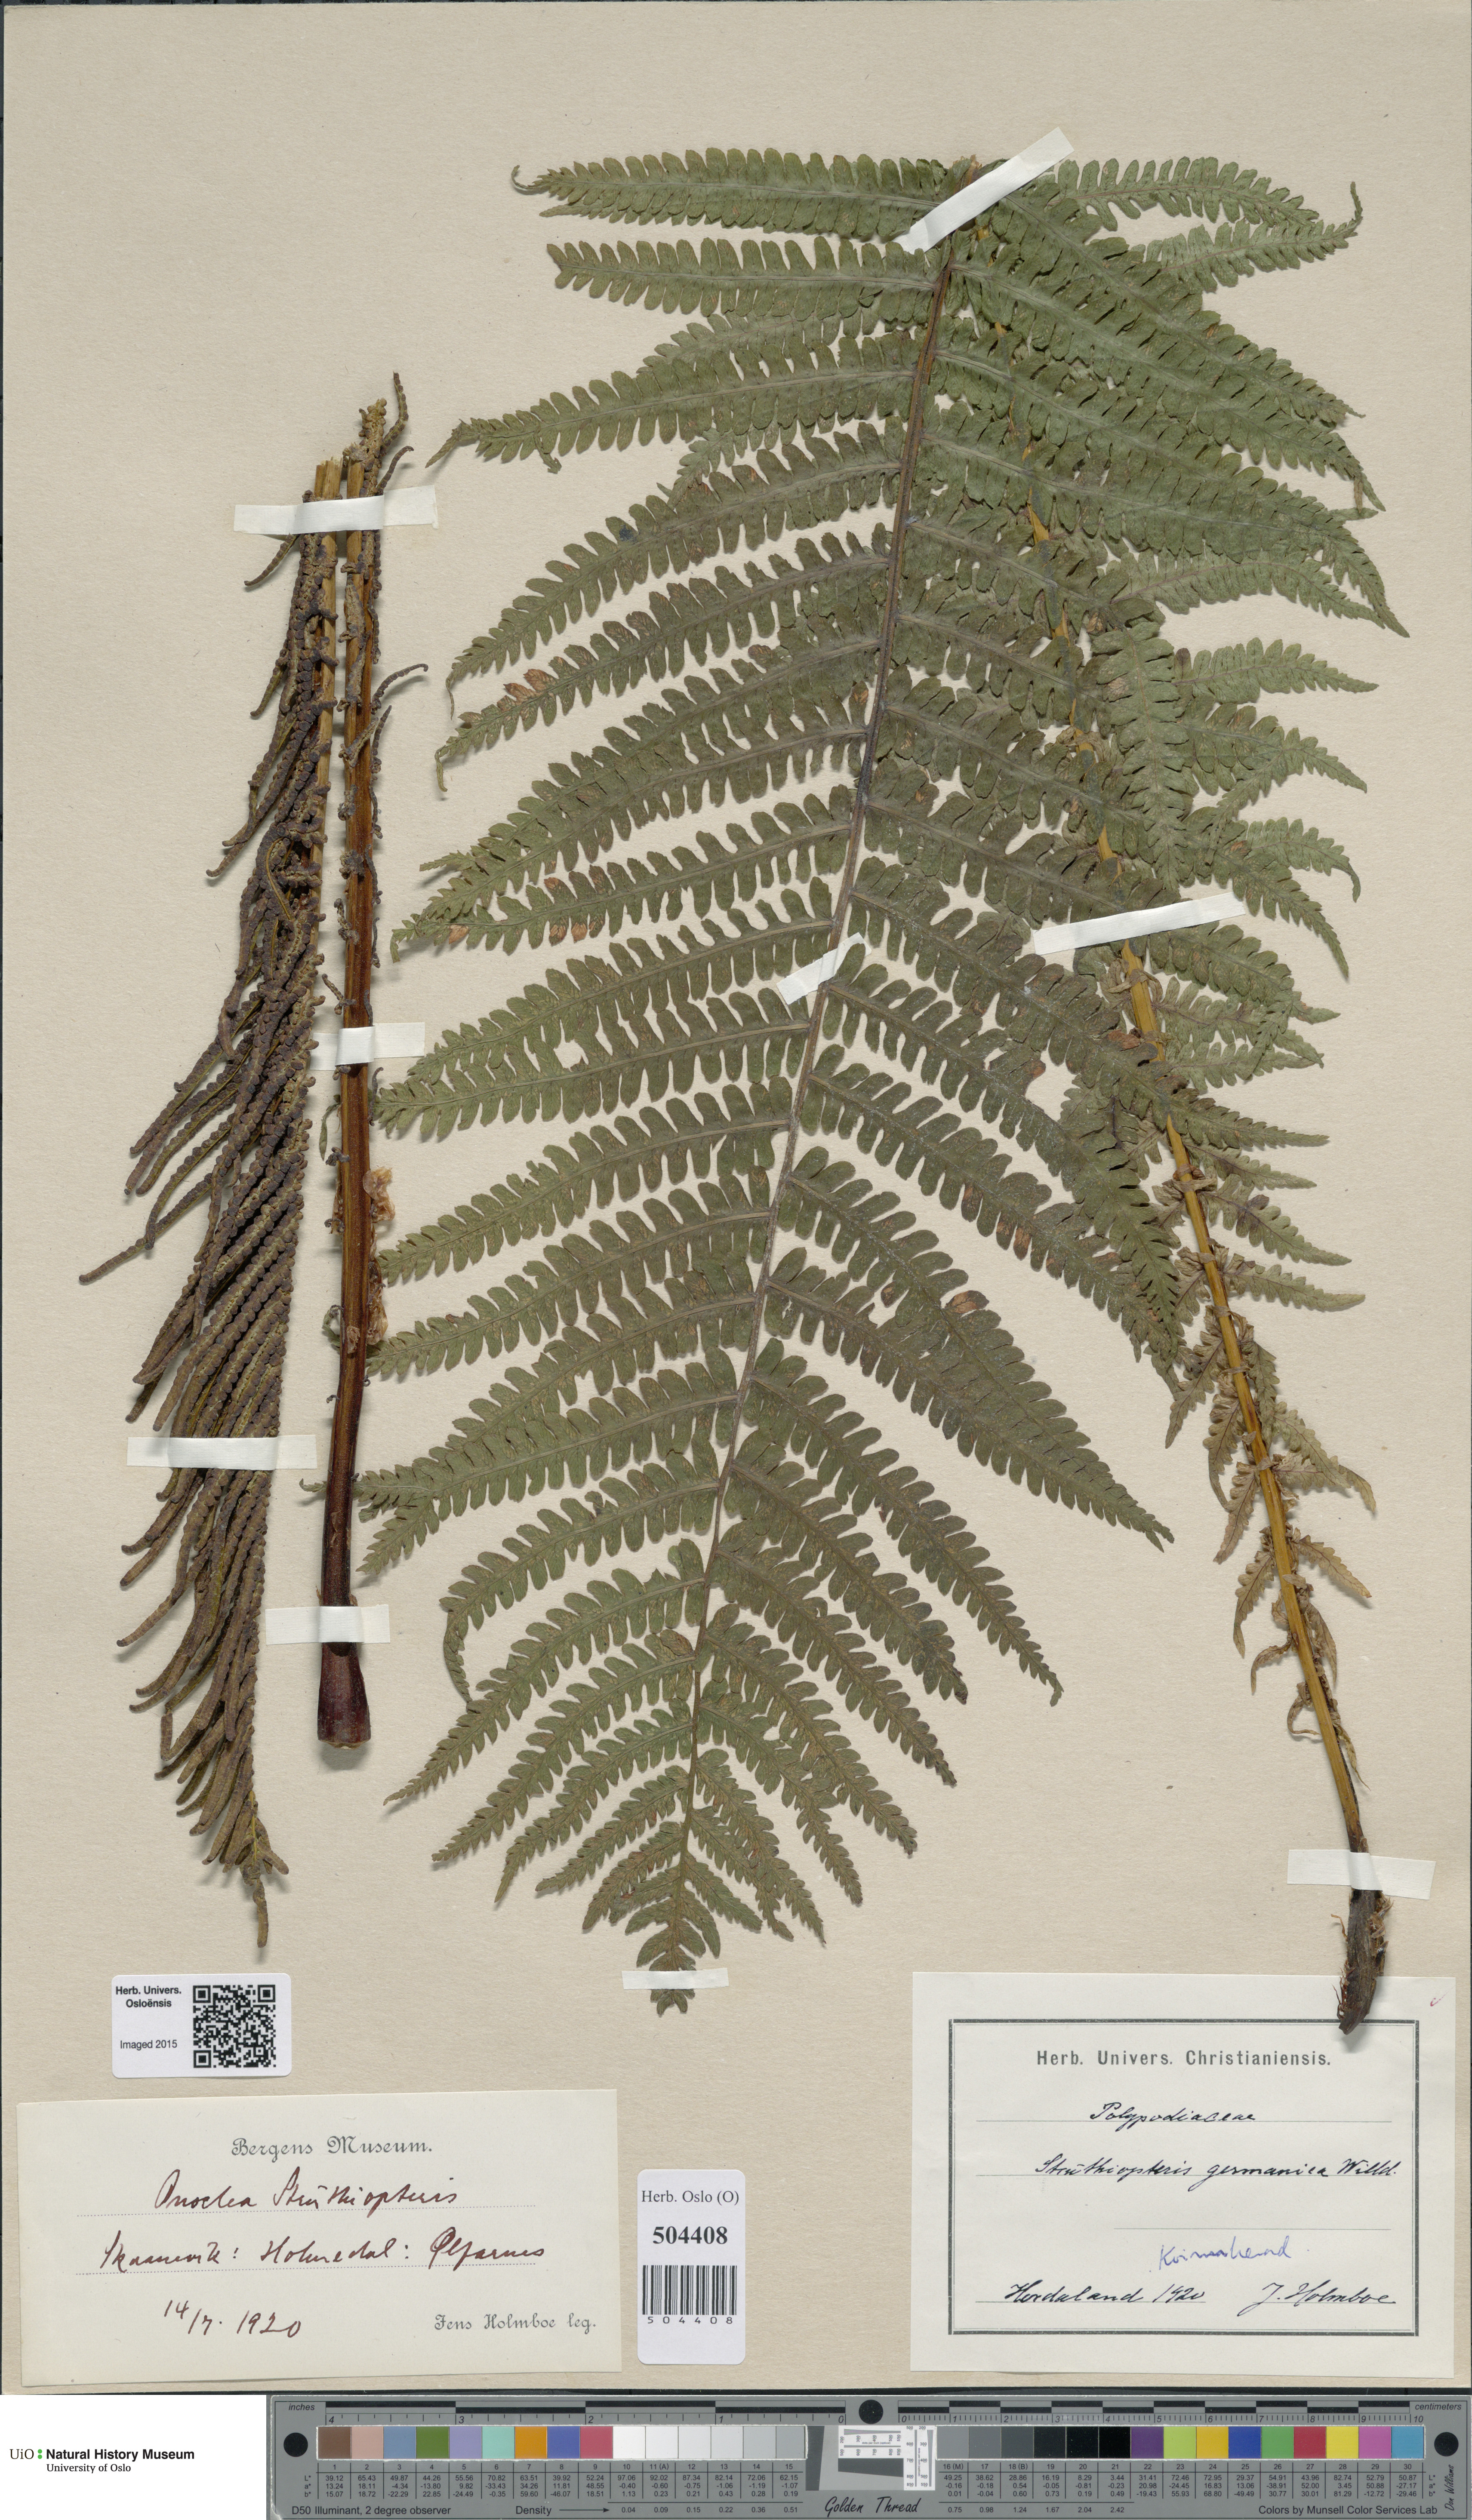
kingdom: Plantae
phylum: Tracheophyta
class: Polypodiopsida
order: Polypodiales
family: Onocleaceae
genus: Matteuccia
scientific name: Matteuccia struthiopteris
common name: Ostrich fern
